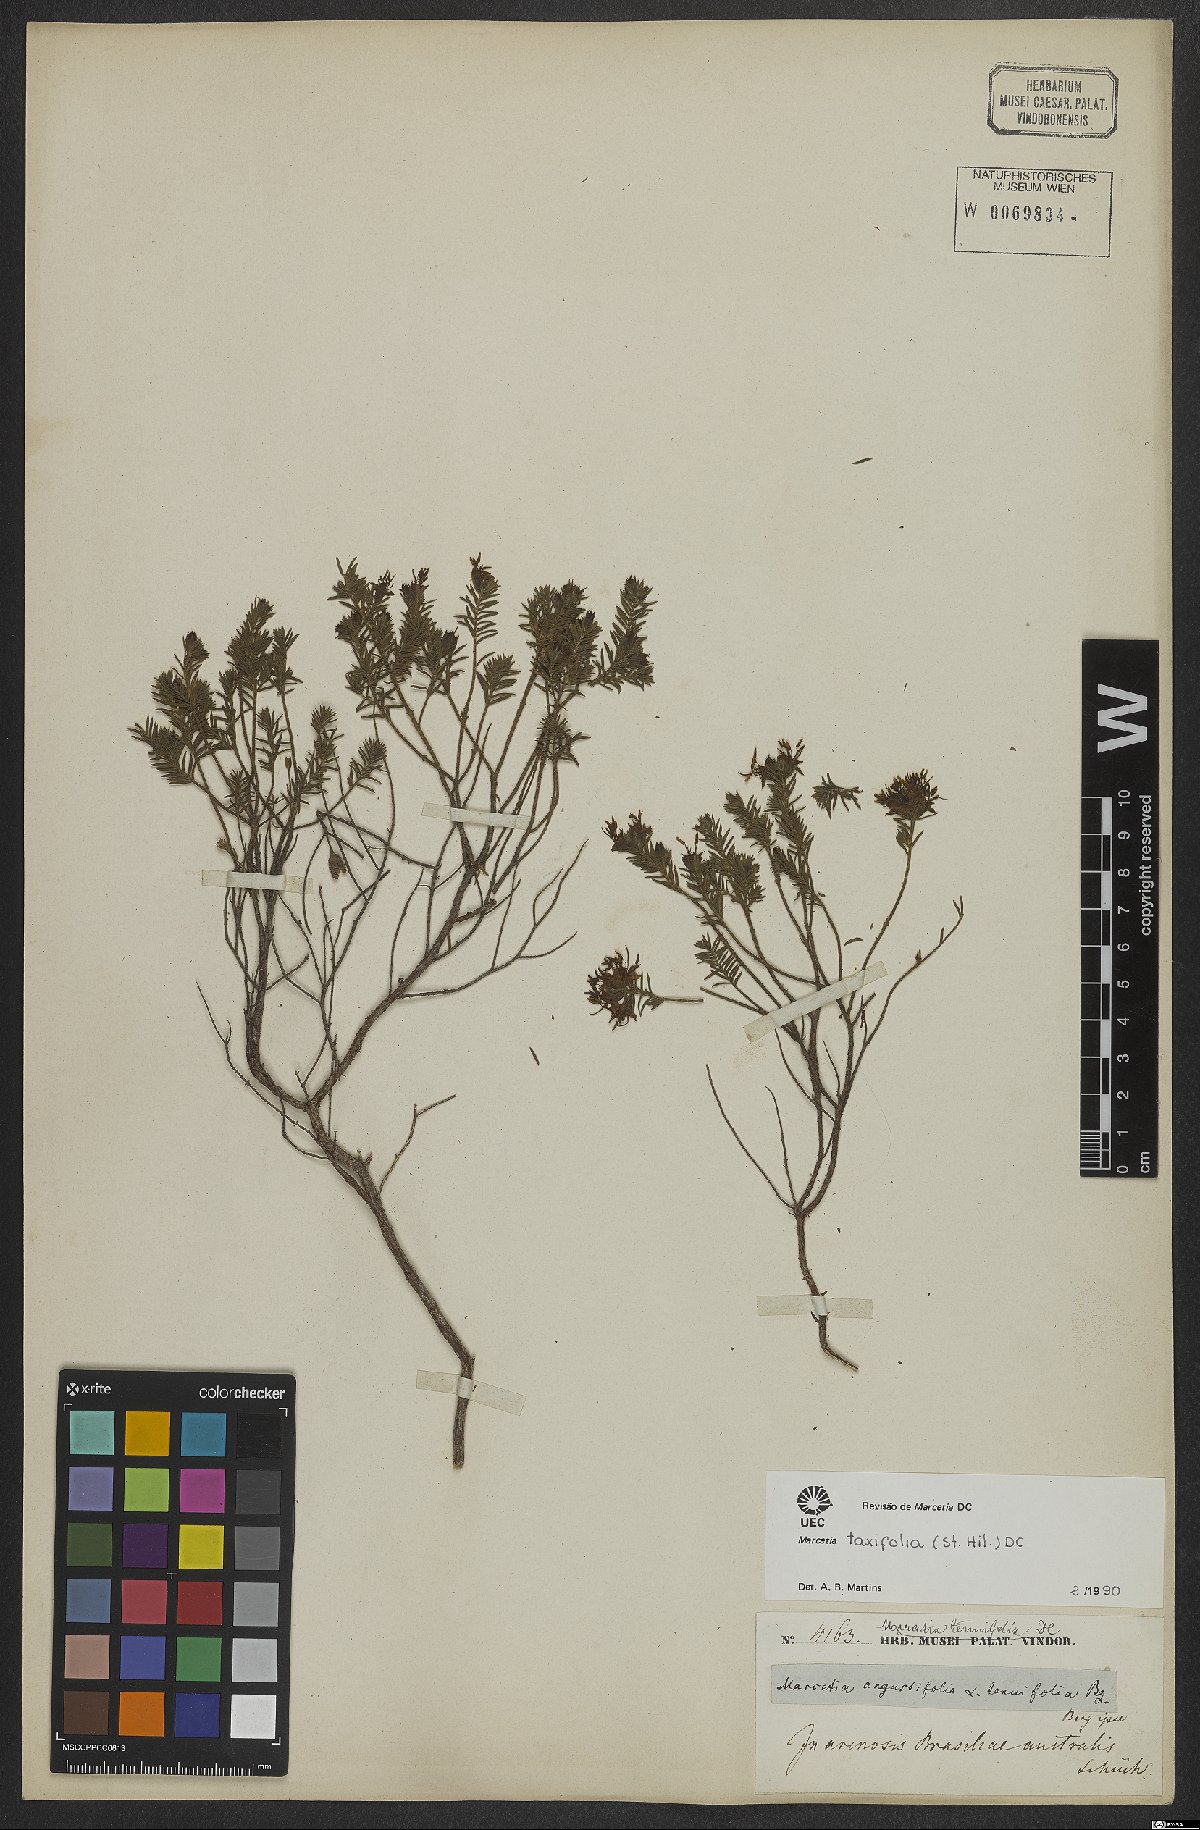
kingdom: Plantae
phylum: Tracheophyta
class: Magnoliopsida
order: Myrtales
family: Melastomataceae
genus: Marcetia
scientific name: Marcetia taxifolia
